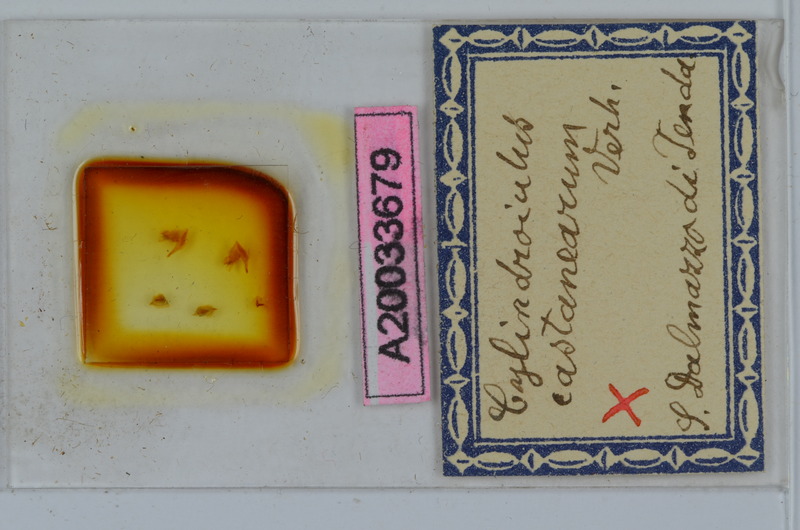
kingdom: Animalia
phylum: Arthropoda
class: Diplopoda
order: Julida
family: Julidae
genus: Cylindroiulus
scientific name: Cylindroiulus broti
